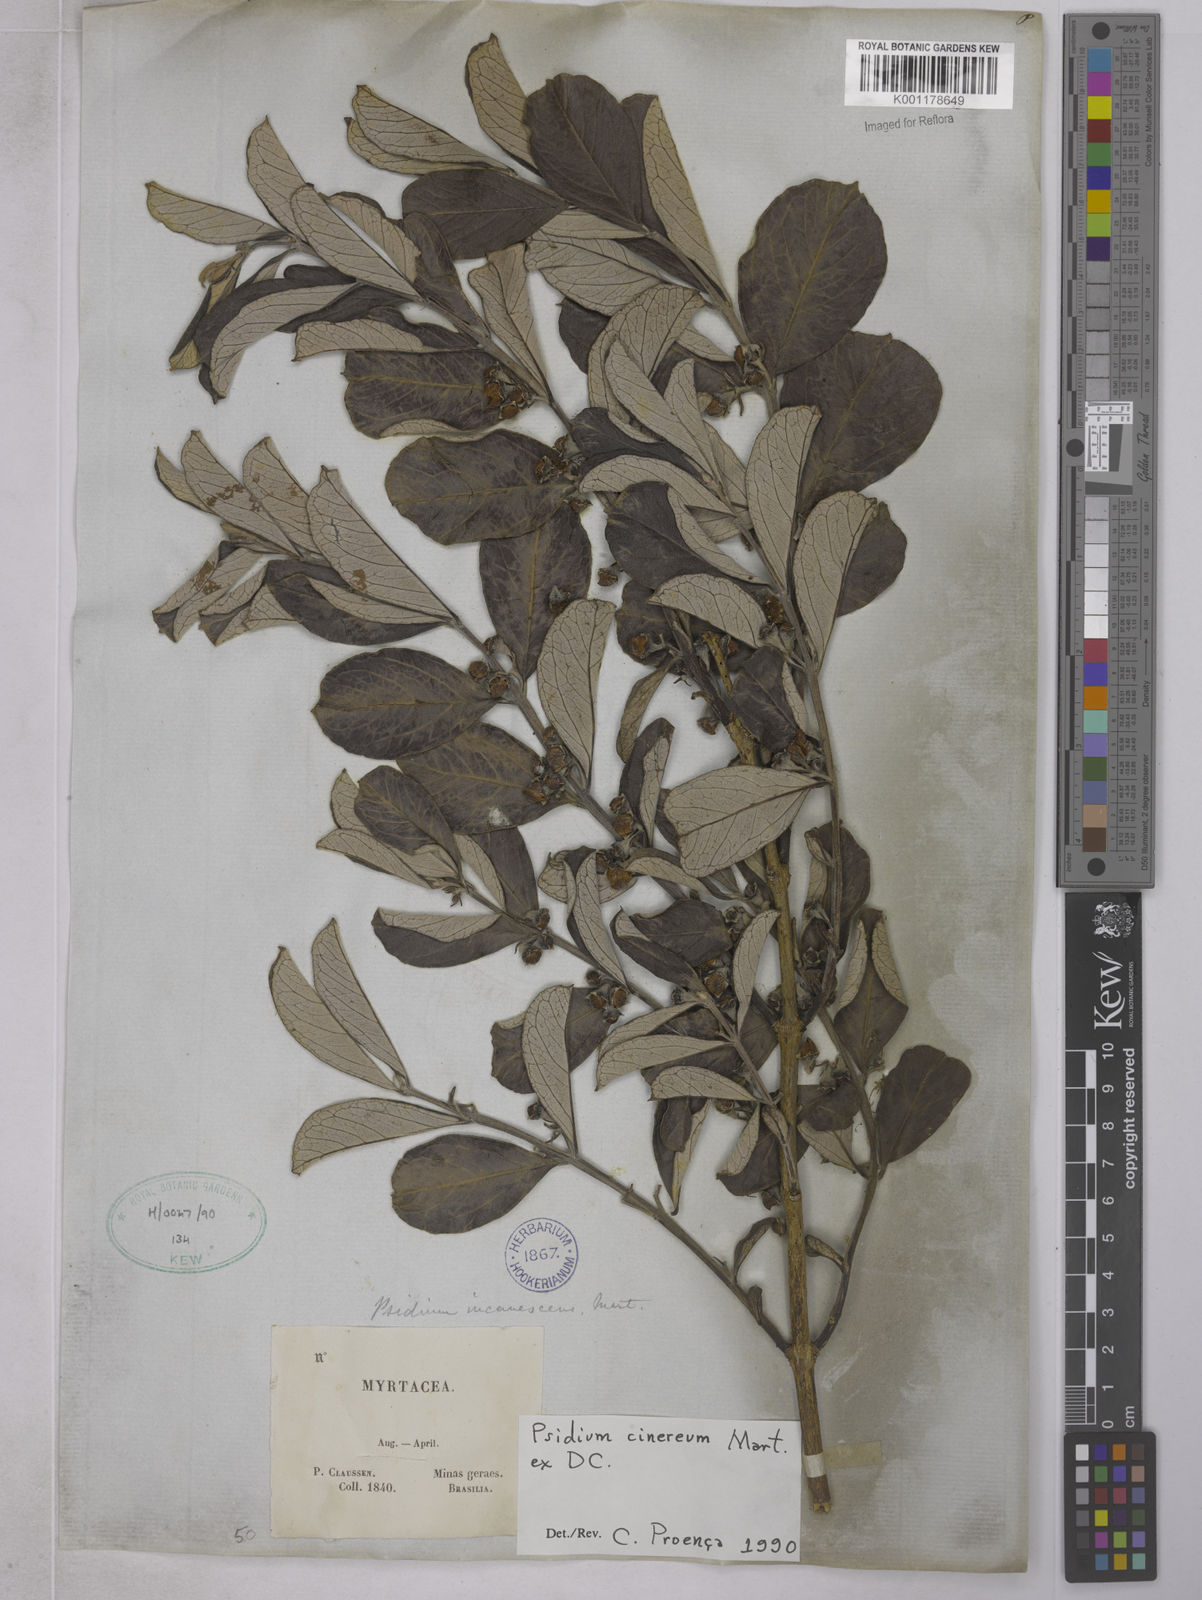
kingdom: Plantae
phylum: Tracheophyta
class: Magnoliopsida
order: Myrtales
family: Myrtaceae
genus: Psidium
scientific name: Psidium grandifolium
